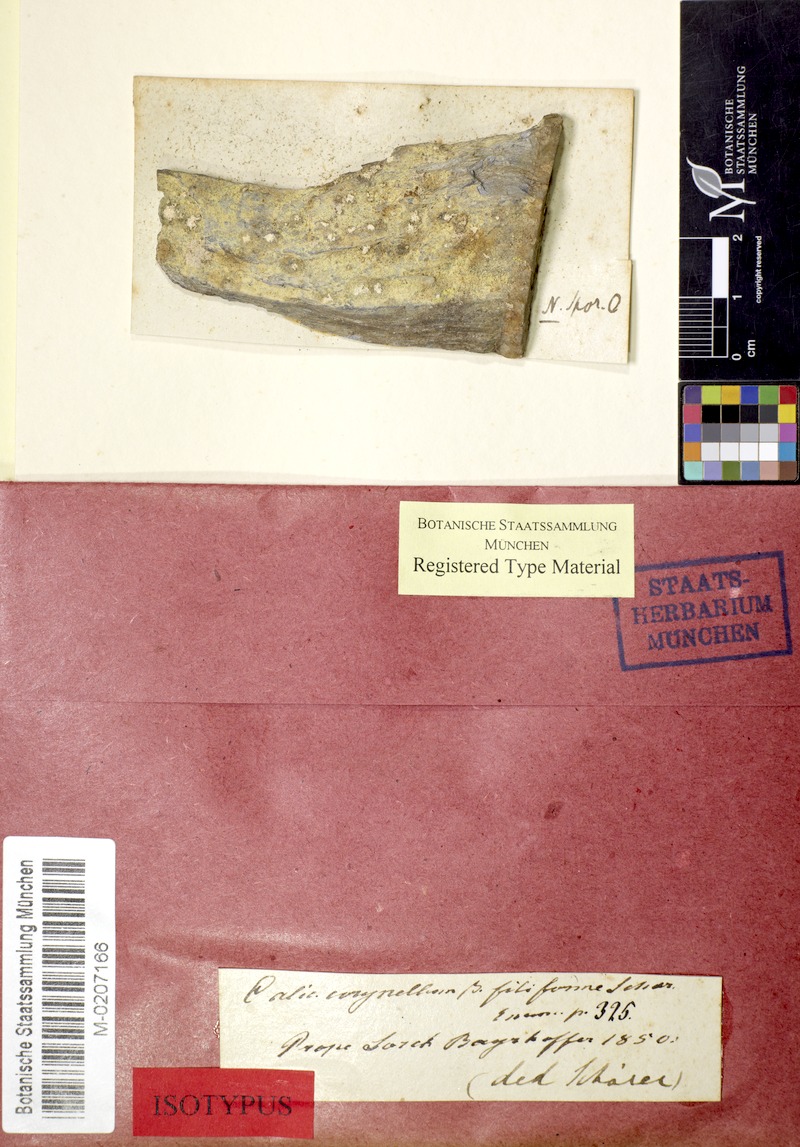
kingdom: Fungi
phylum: Ascomycota
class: Lecanoromycetes
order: Caliciales
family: Caliciaceae
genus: Calicium
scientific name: Calicium corynellum
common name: Rock nail
